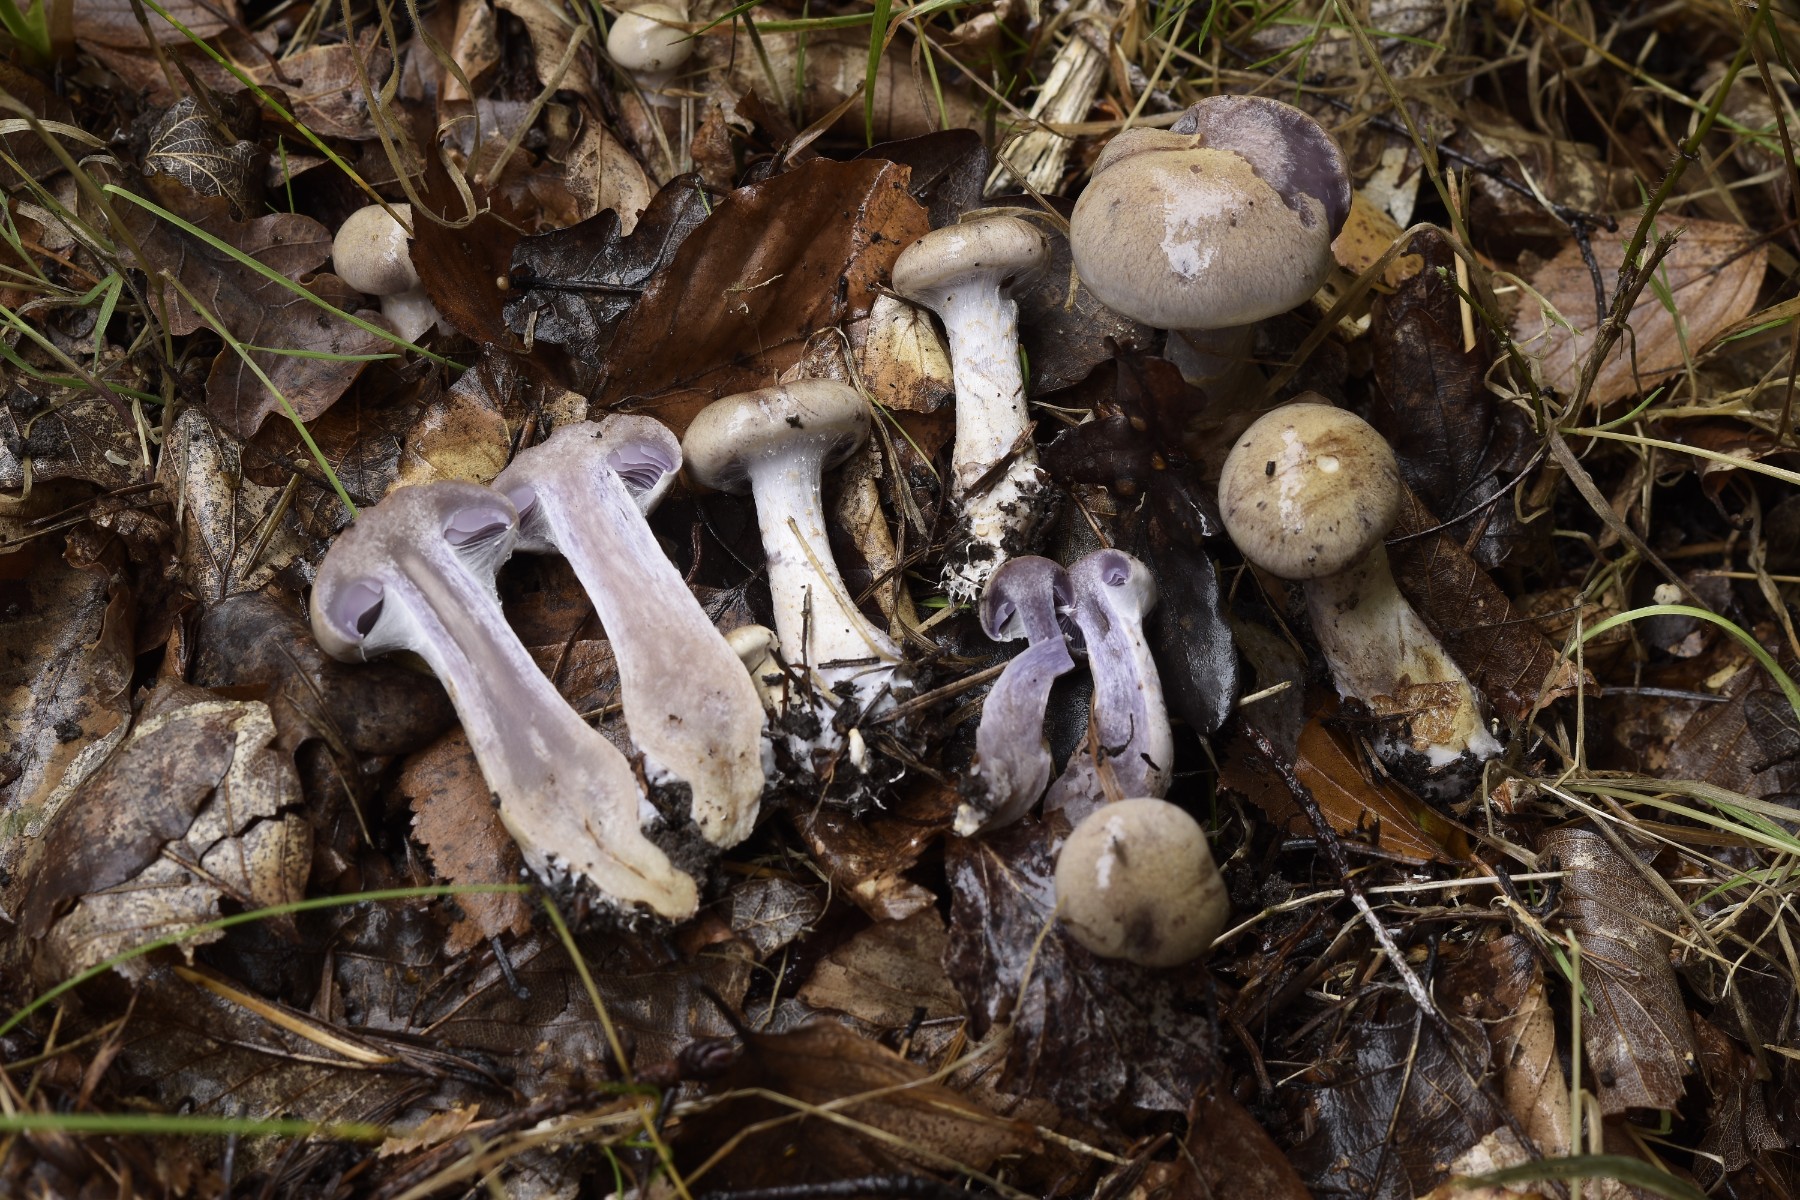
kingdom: Fungi
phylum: Basidiomycota
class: Agaricomycetes
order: Agaricales
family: Cortinariaceae
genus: Cortinarius
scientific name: Cortinarius pelerinii
